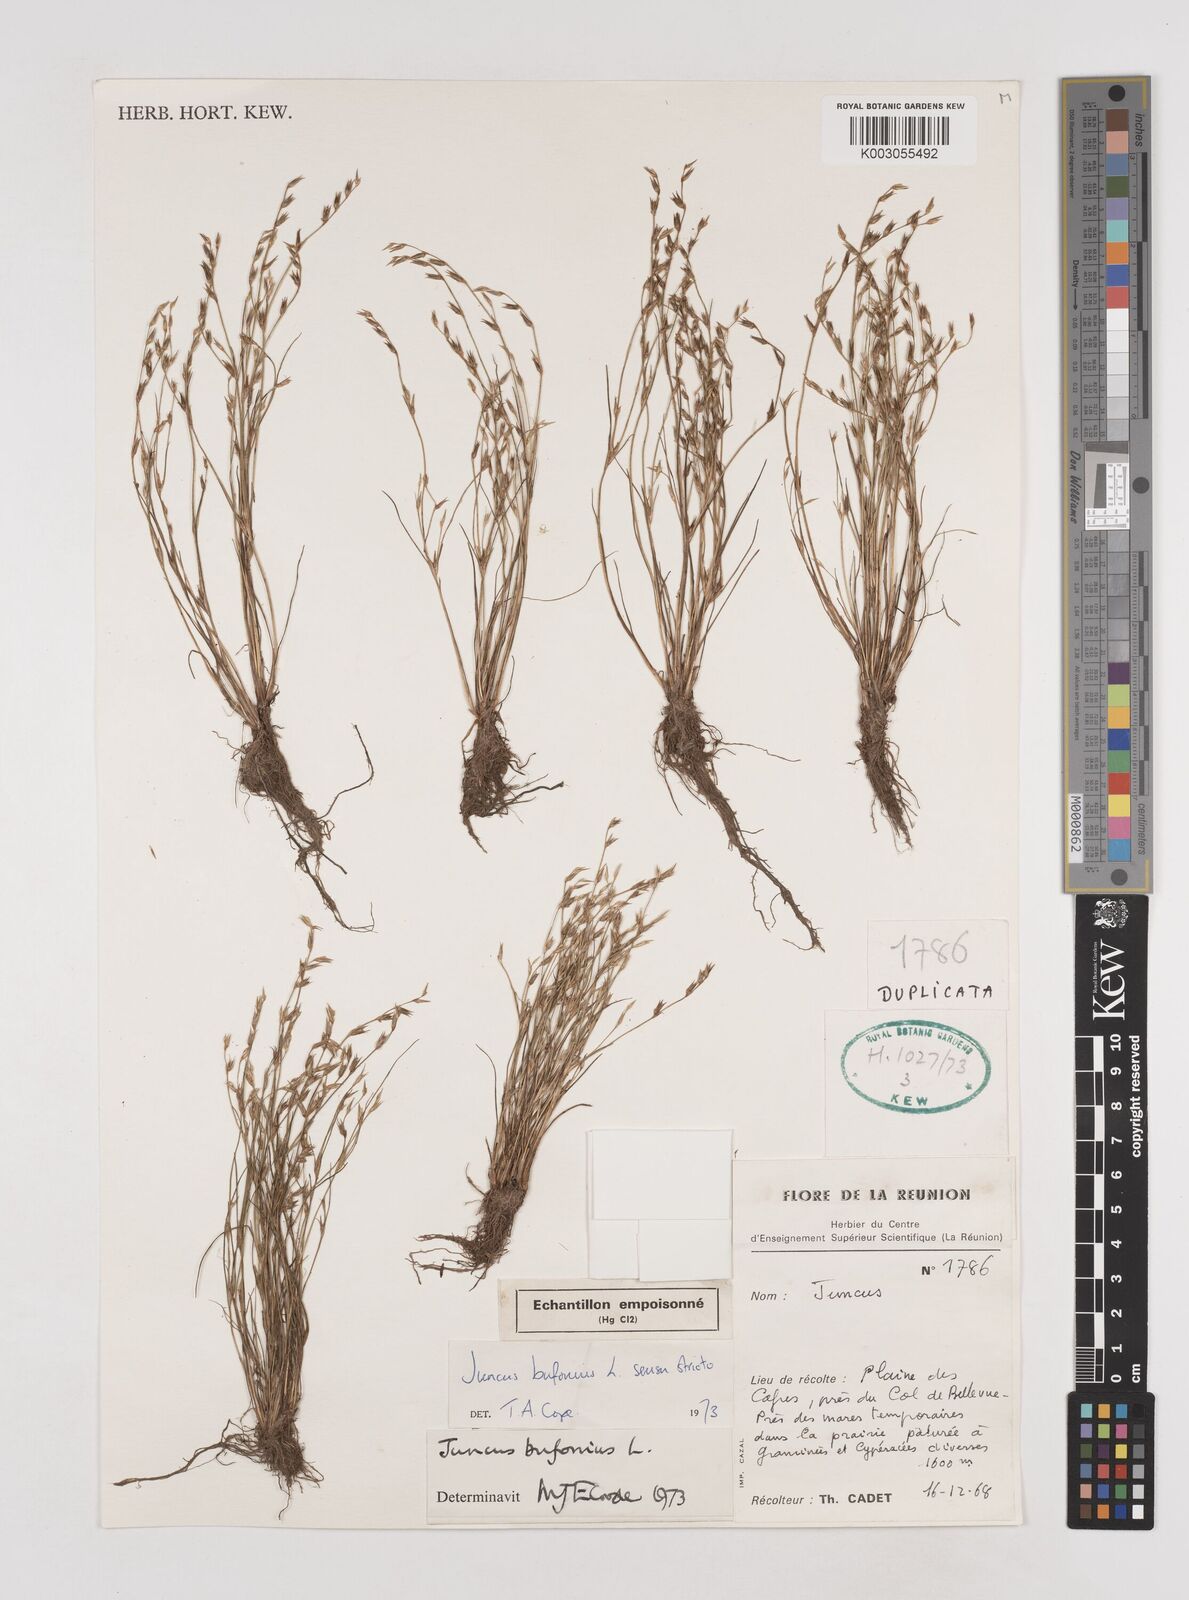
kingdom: Plantae
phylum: Tracheophyta
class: Liliopsida
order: Poales
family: Juncaceae
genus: Juncus
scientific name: Juncus bufonius
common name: Toad rush
